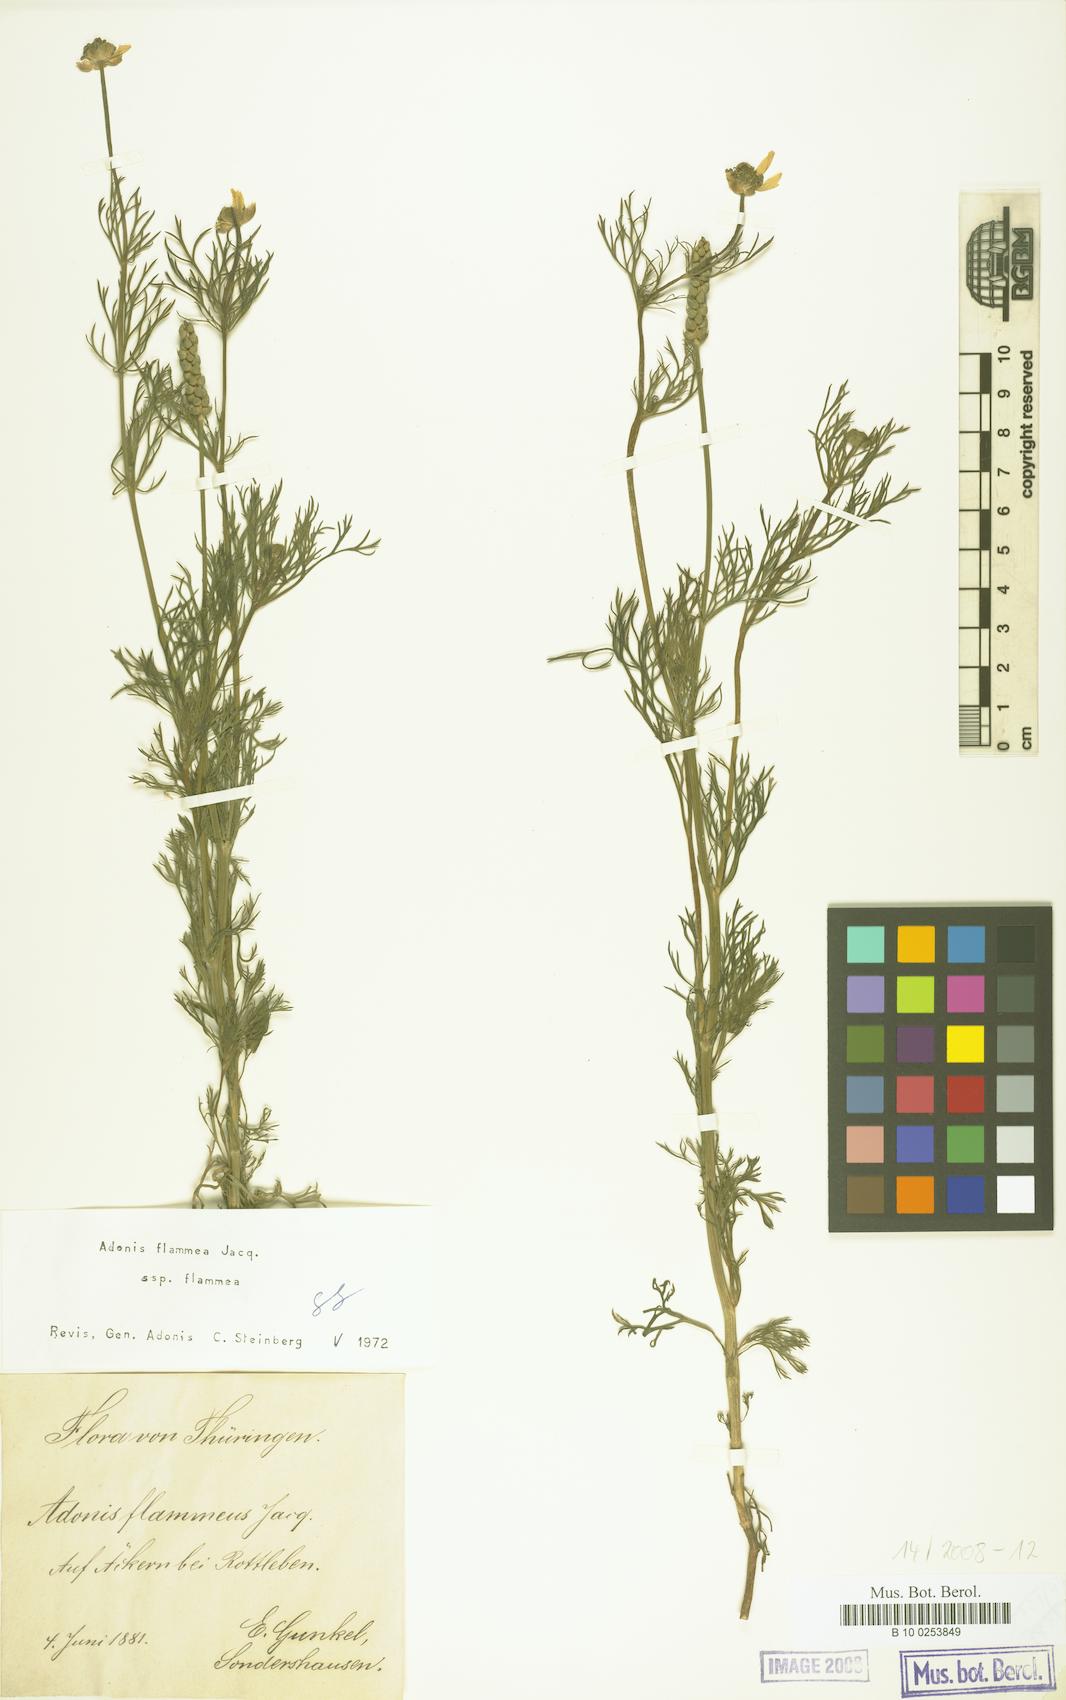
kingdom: Plantae
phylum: Tracheophyta
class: Magnoliopsida
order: Ranunculales
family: Ranunculaceae
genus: Adonis
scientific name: Adonis flammea
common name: Large pheasant's-eye
